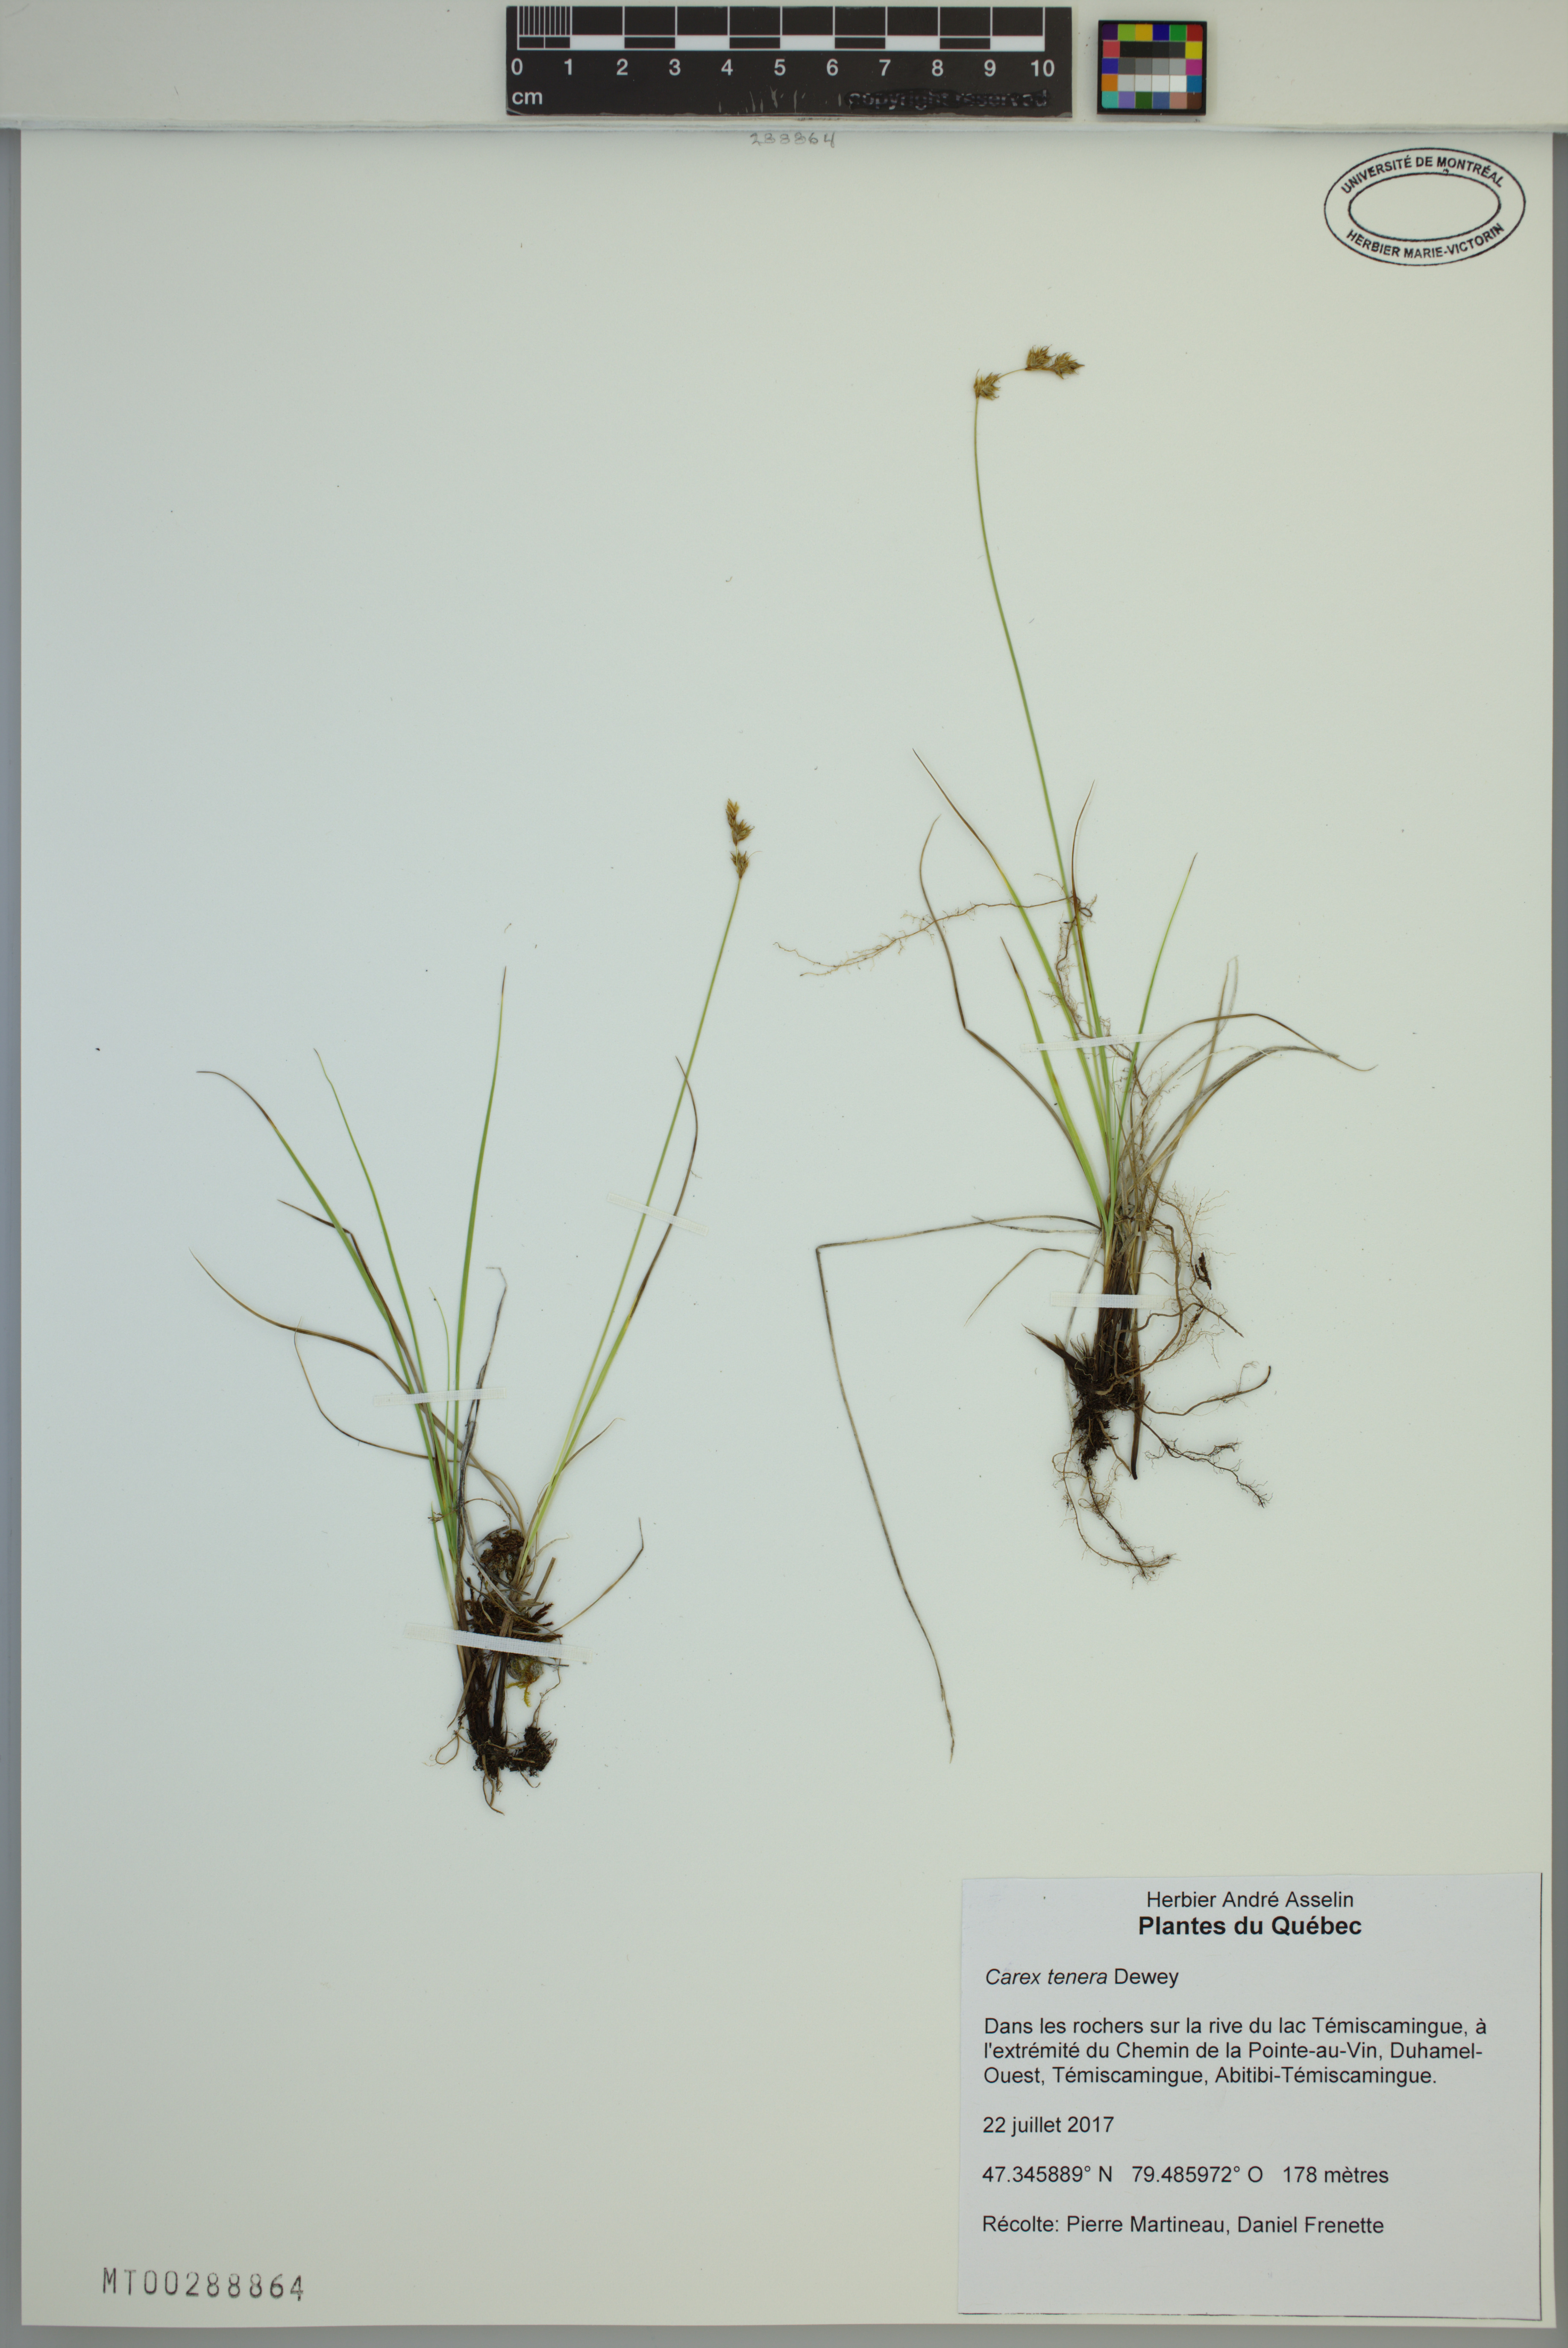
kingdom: Plantae
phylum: Tracheophyta
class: Liliopsida
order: Poales
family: Cyperaceae
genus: Carex
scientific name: Carex tenera
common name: Broad-fruited sedge
